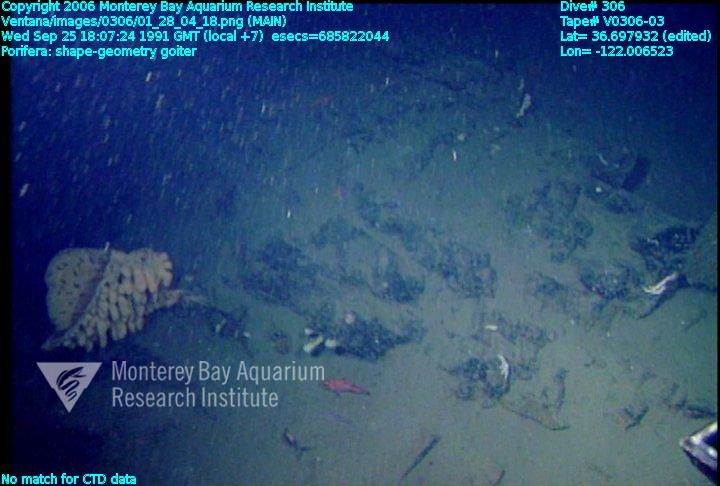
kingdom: Animalia
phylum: Porifera
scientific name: Porifera
